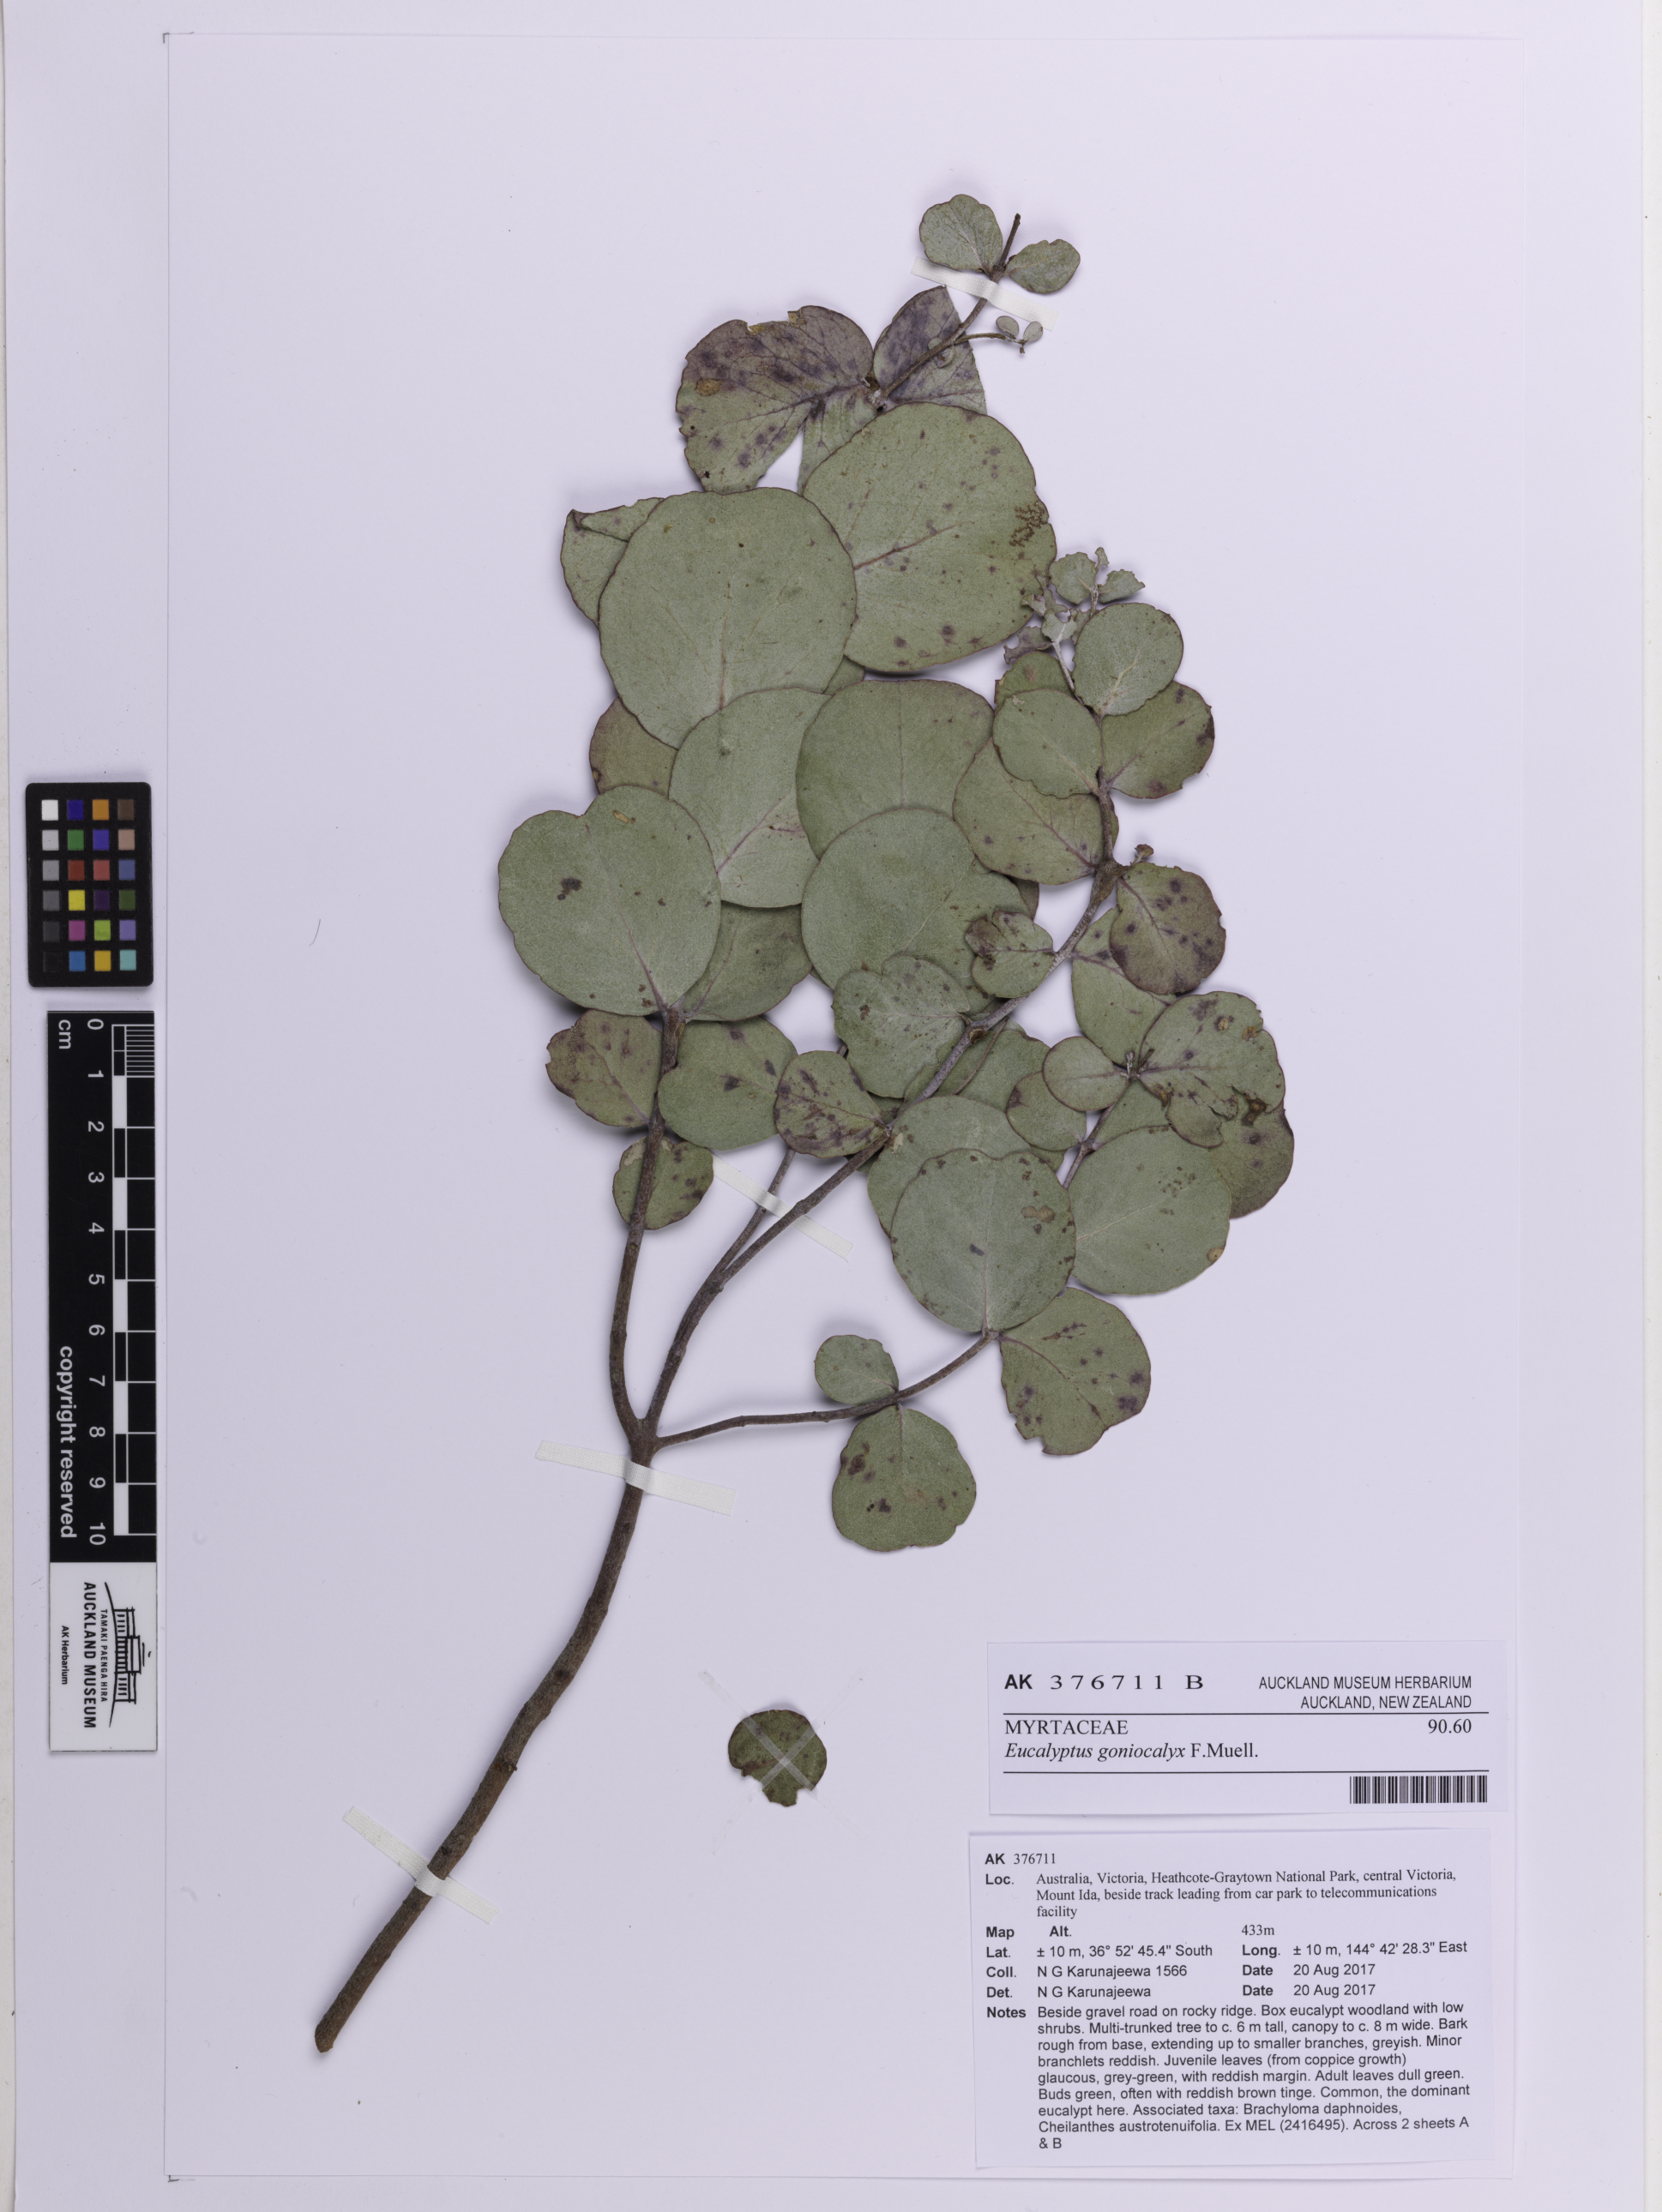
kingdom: Plantae
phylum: Tracheophyta
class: Magnoliopsida
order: Myrtales
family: Myrtaceae
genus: Eucalyptus
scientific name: Eucalyptus goniocalyx
